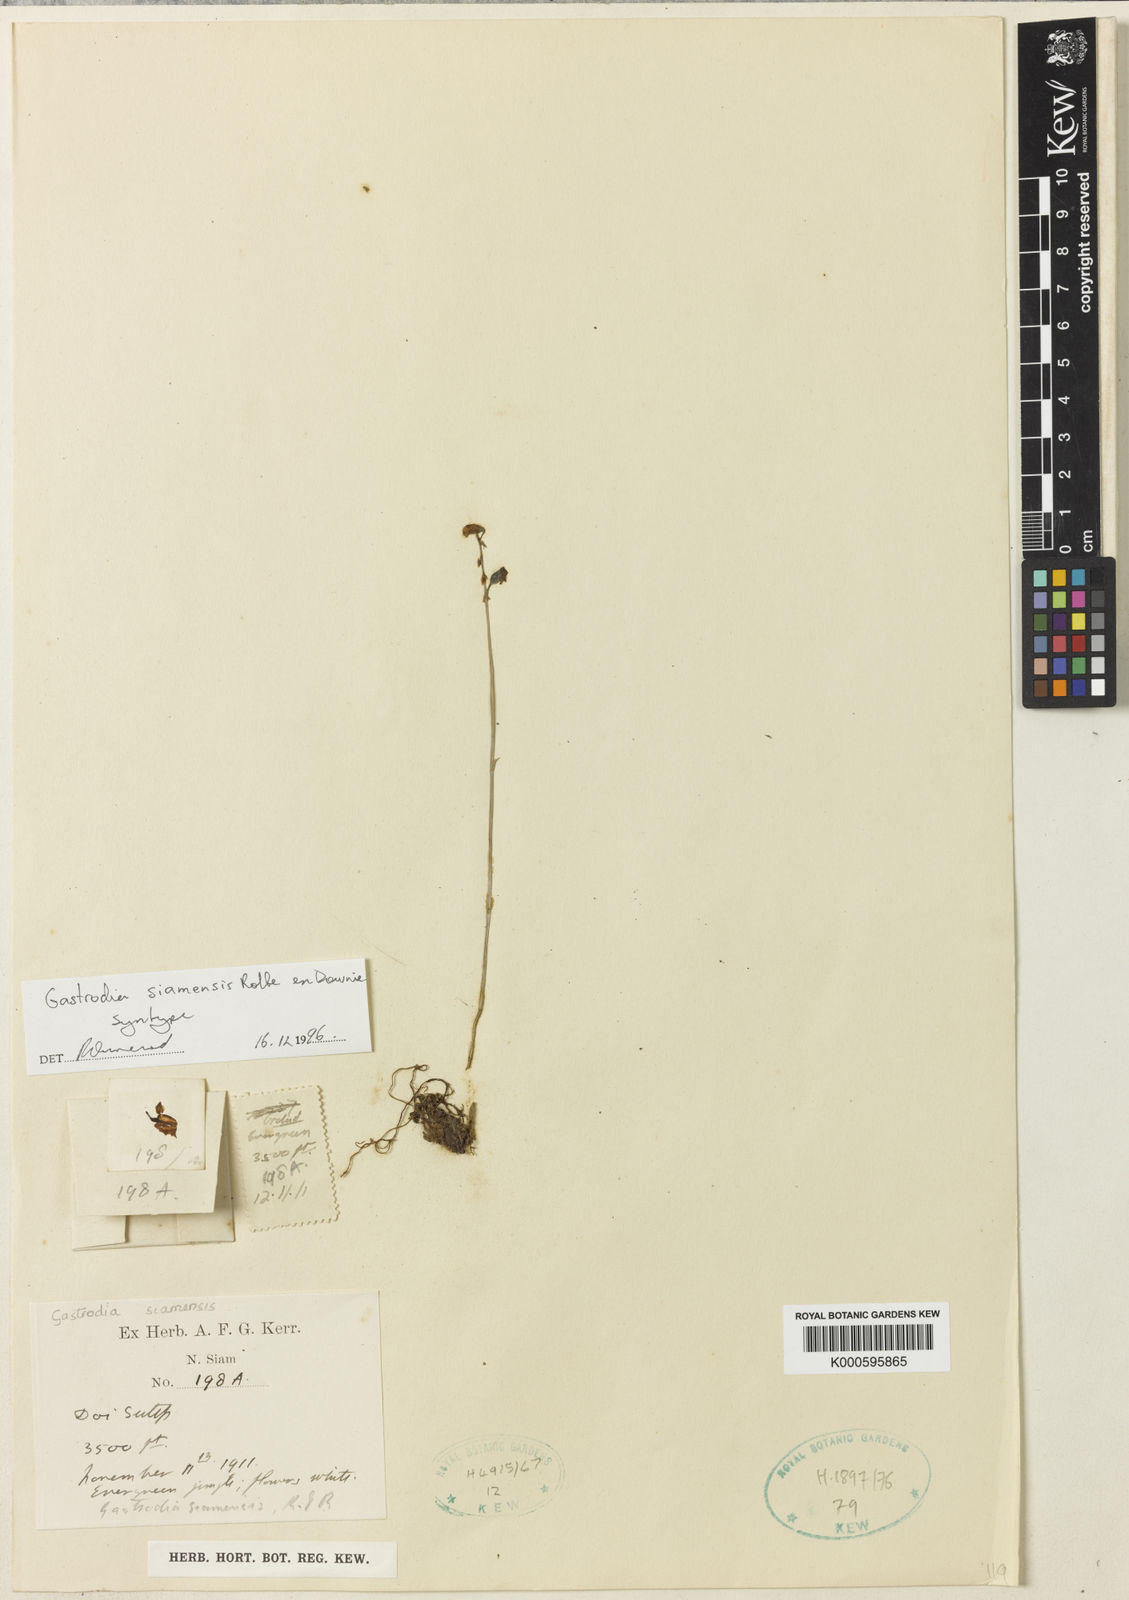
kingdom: Plantae
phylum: Tracheophyta
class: Liliopsida
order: Asparagales
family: Orchidaceae
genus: Gastrodia
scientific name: Gastrodia exilis
